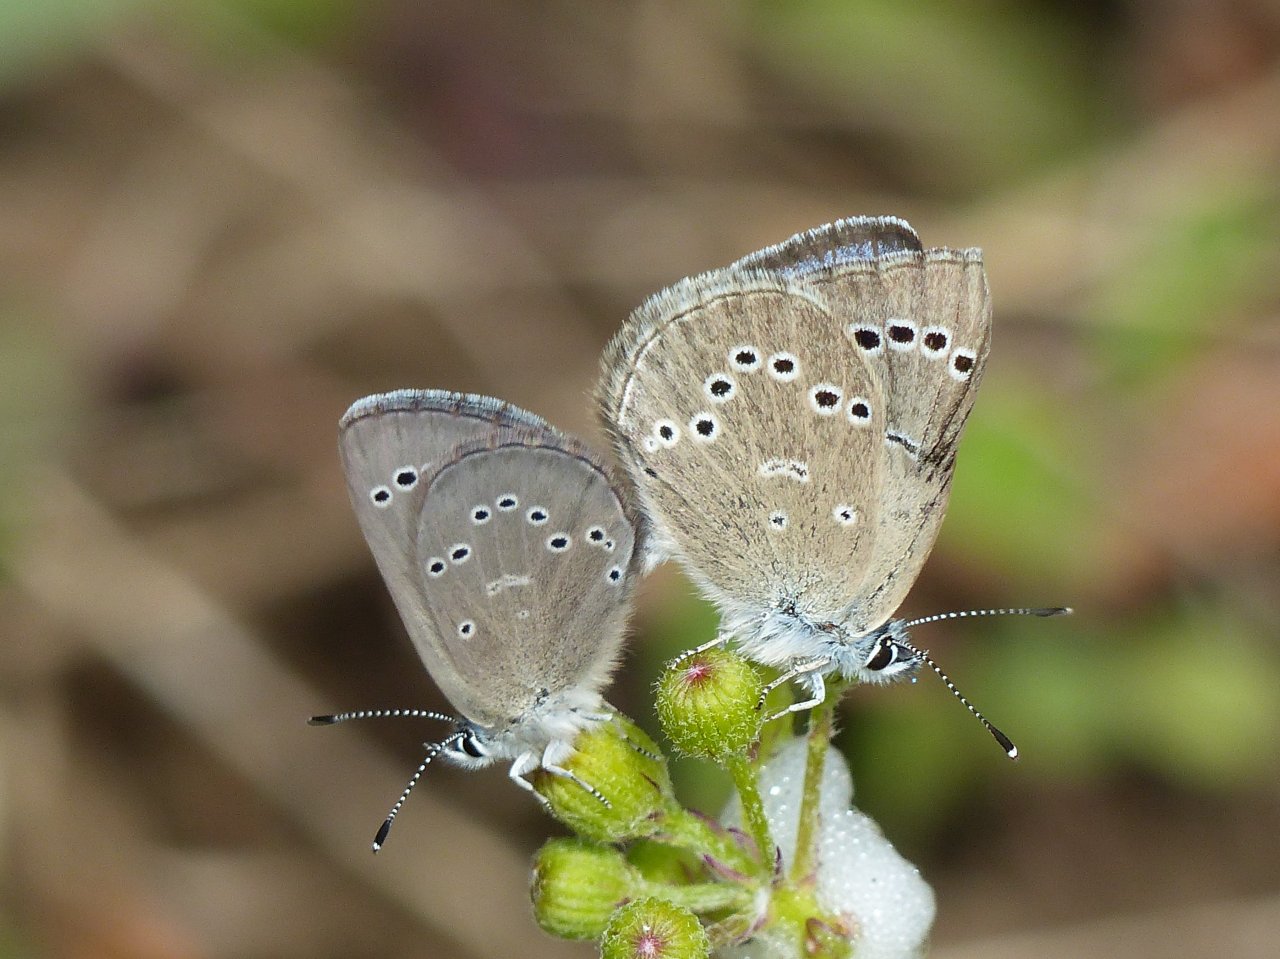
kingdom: Animalia
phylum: Arthropoda
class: Insecta
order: Lepidoptera
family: Lycaenidae
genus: Glaucopsyche
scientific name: Glaucopsyche lygdamus
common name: Silvery Blue
